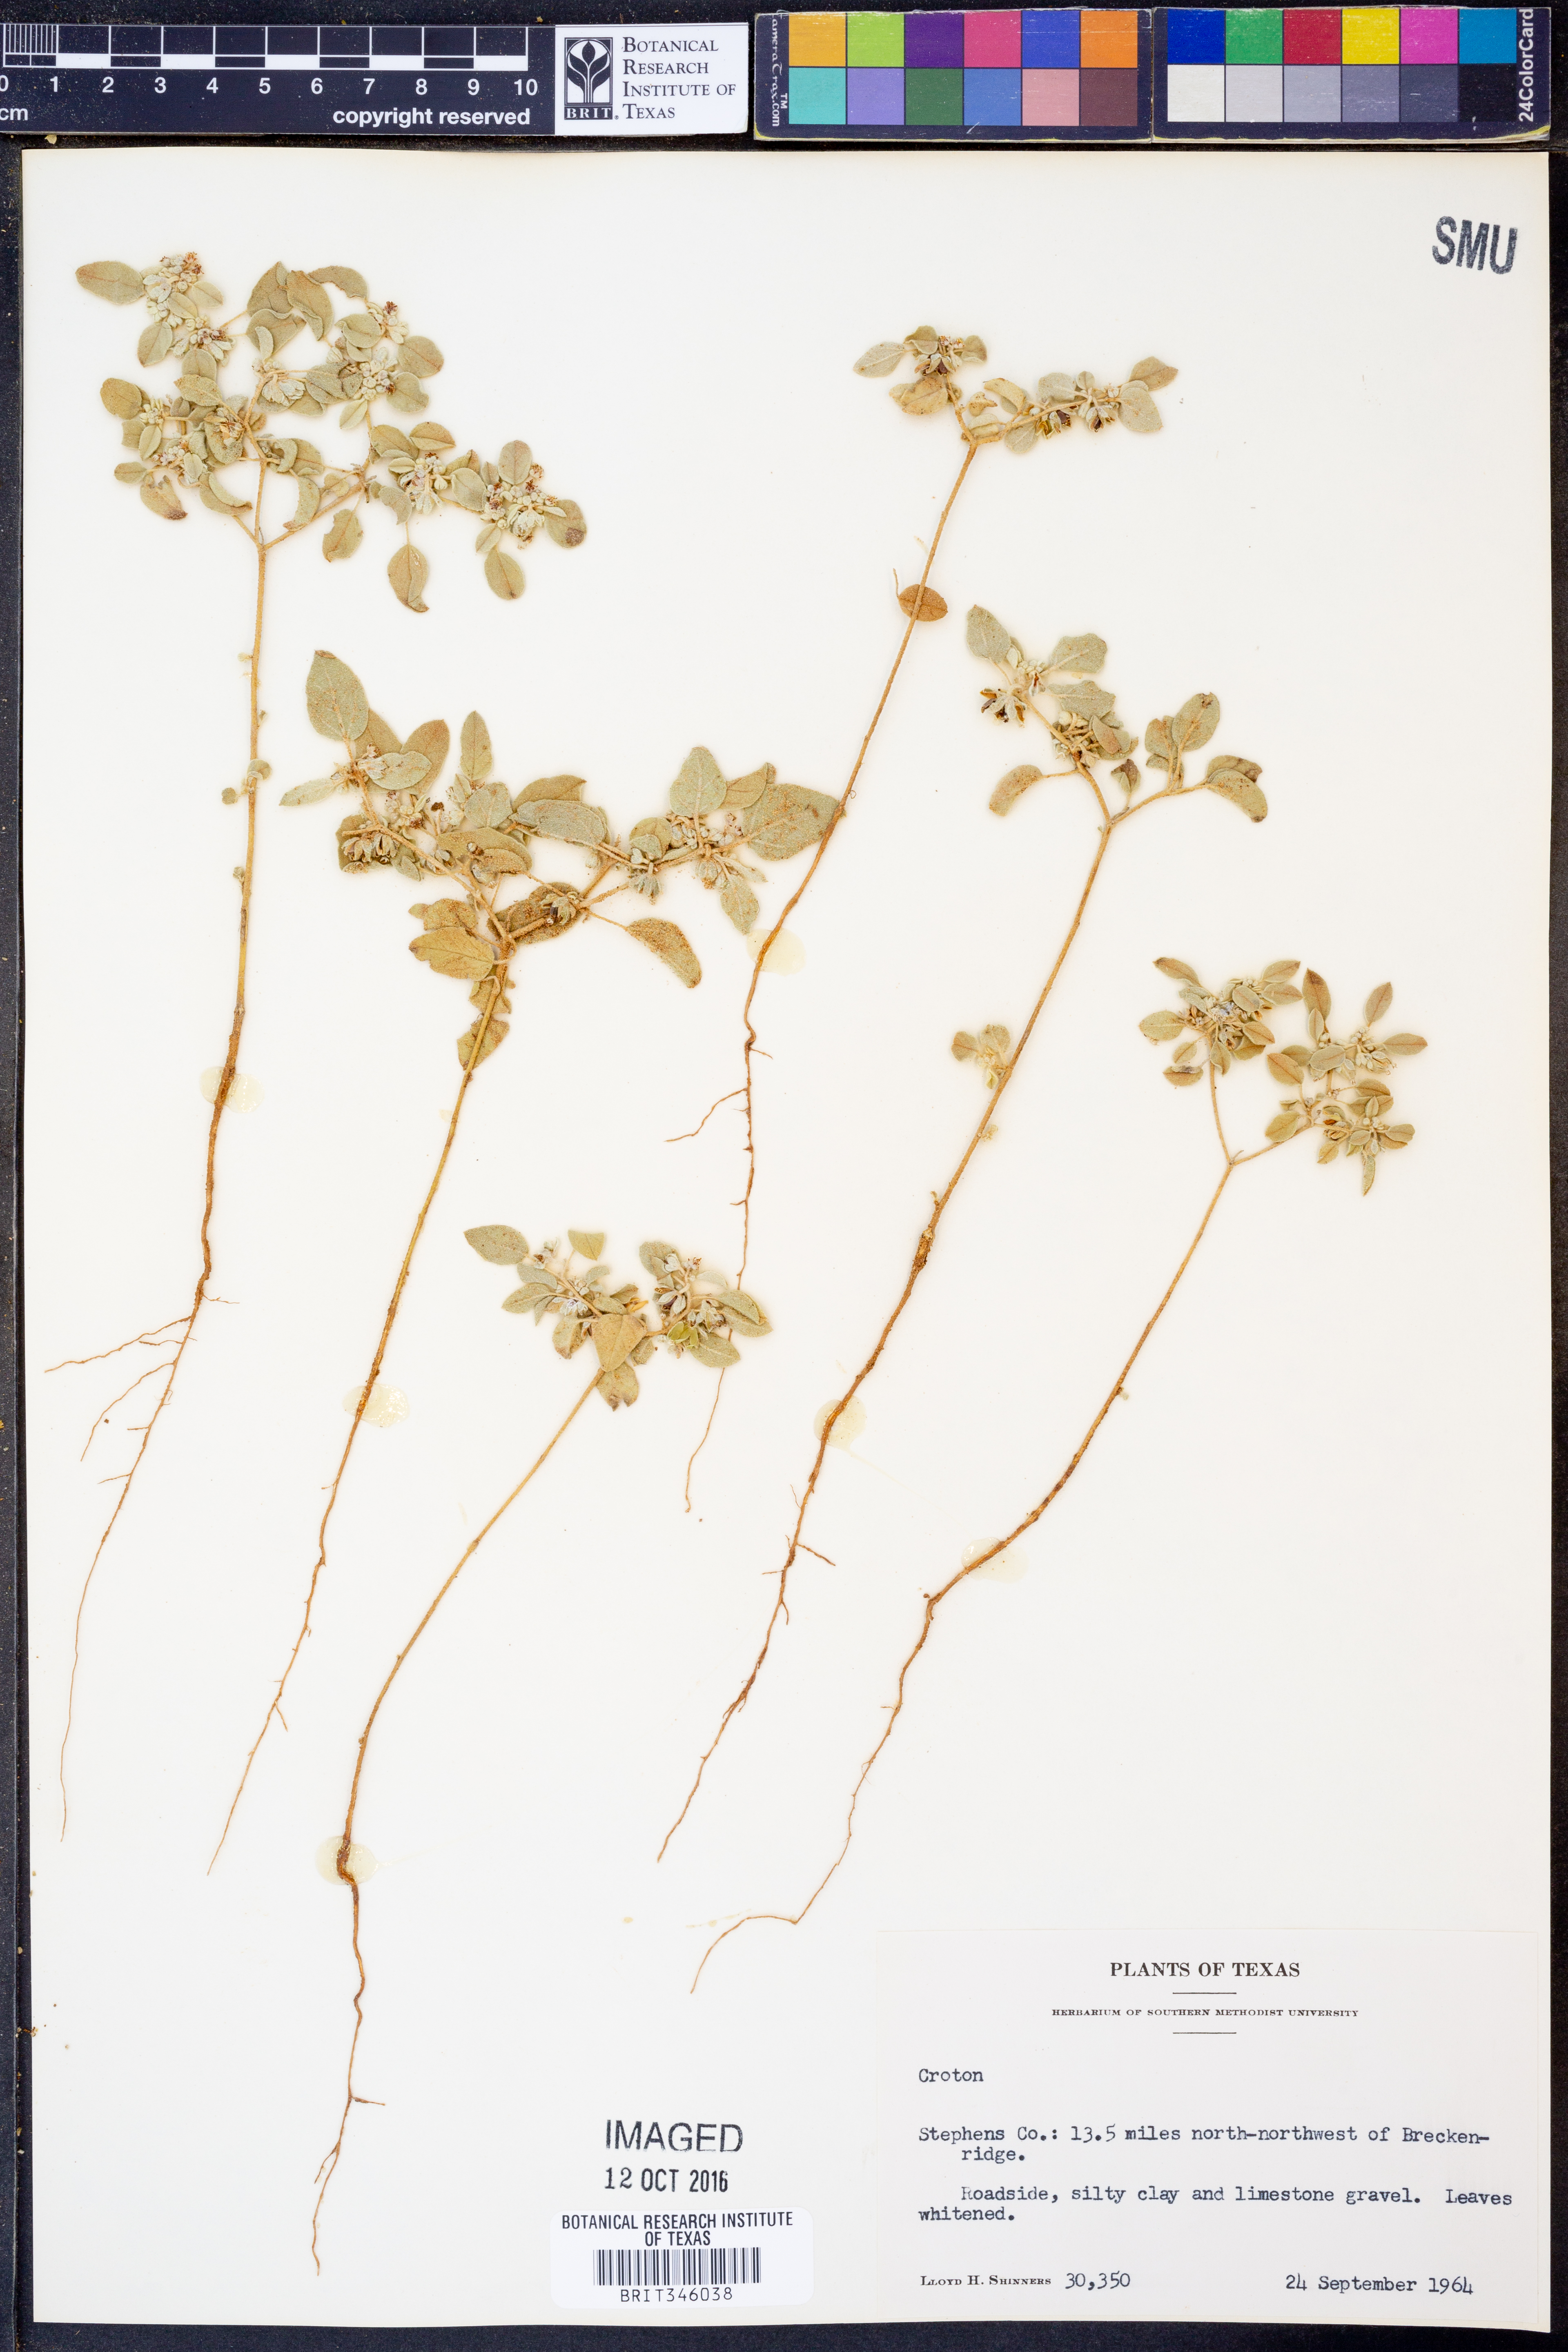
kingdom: Plantae
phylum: Tracheophyta
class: Magnoliopsida
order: Malpighiales
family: Euphorbiaceae
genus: Croton
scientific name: Croton
